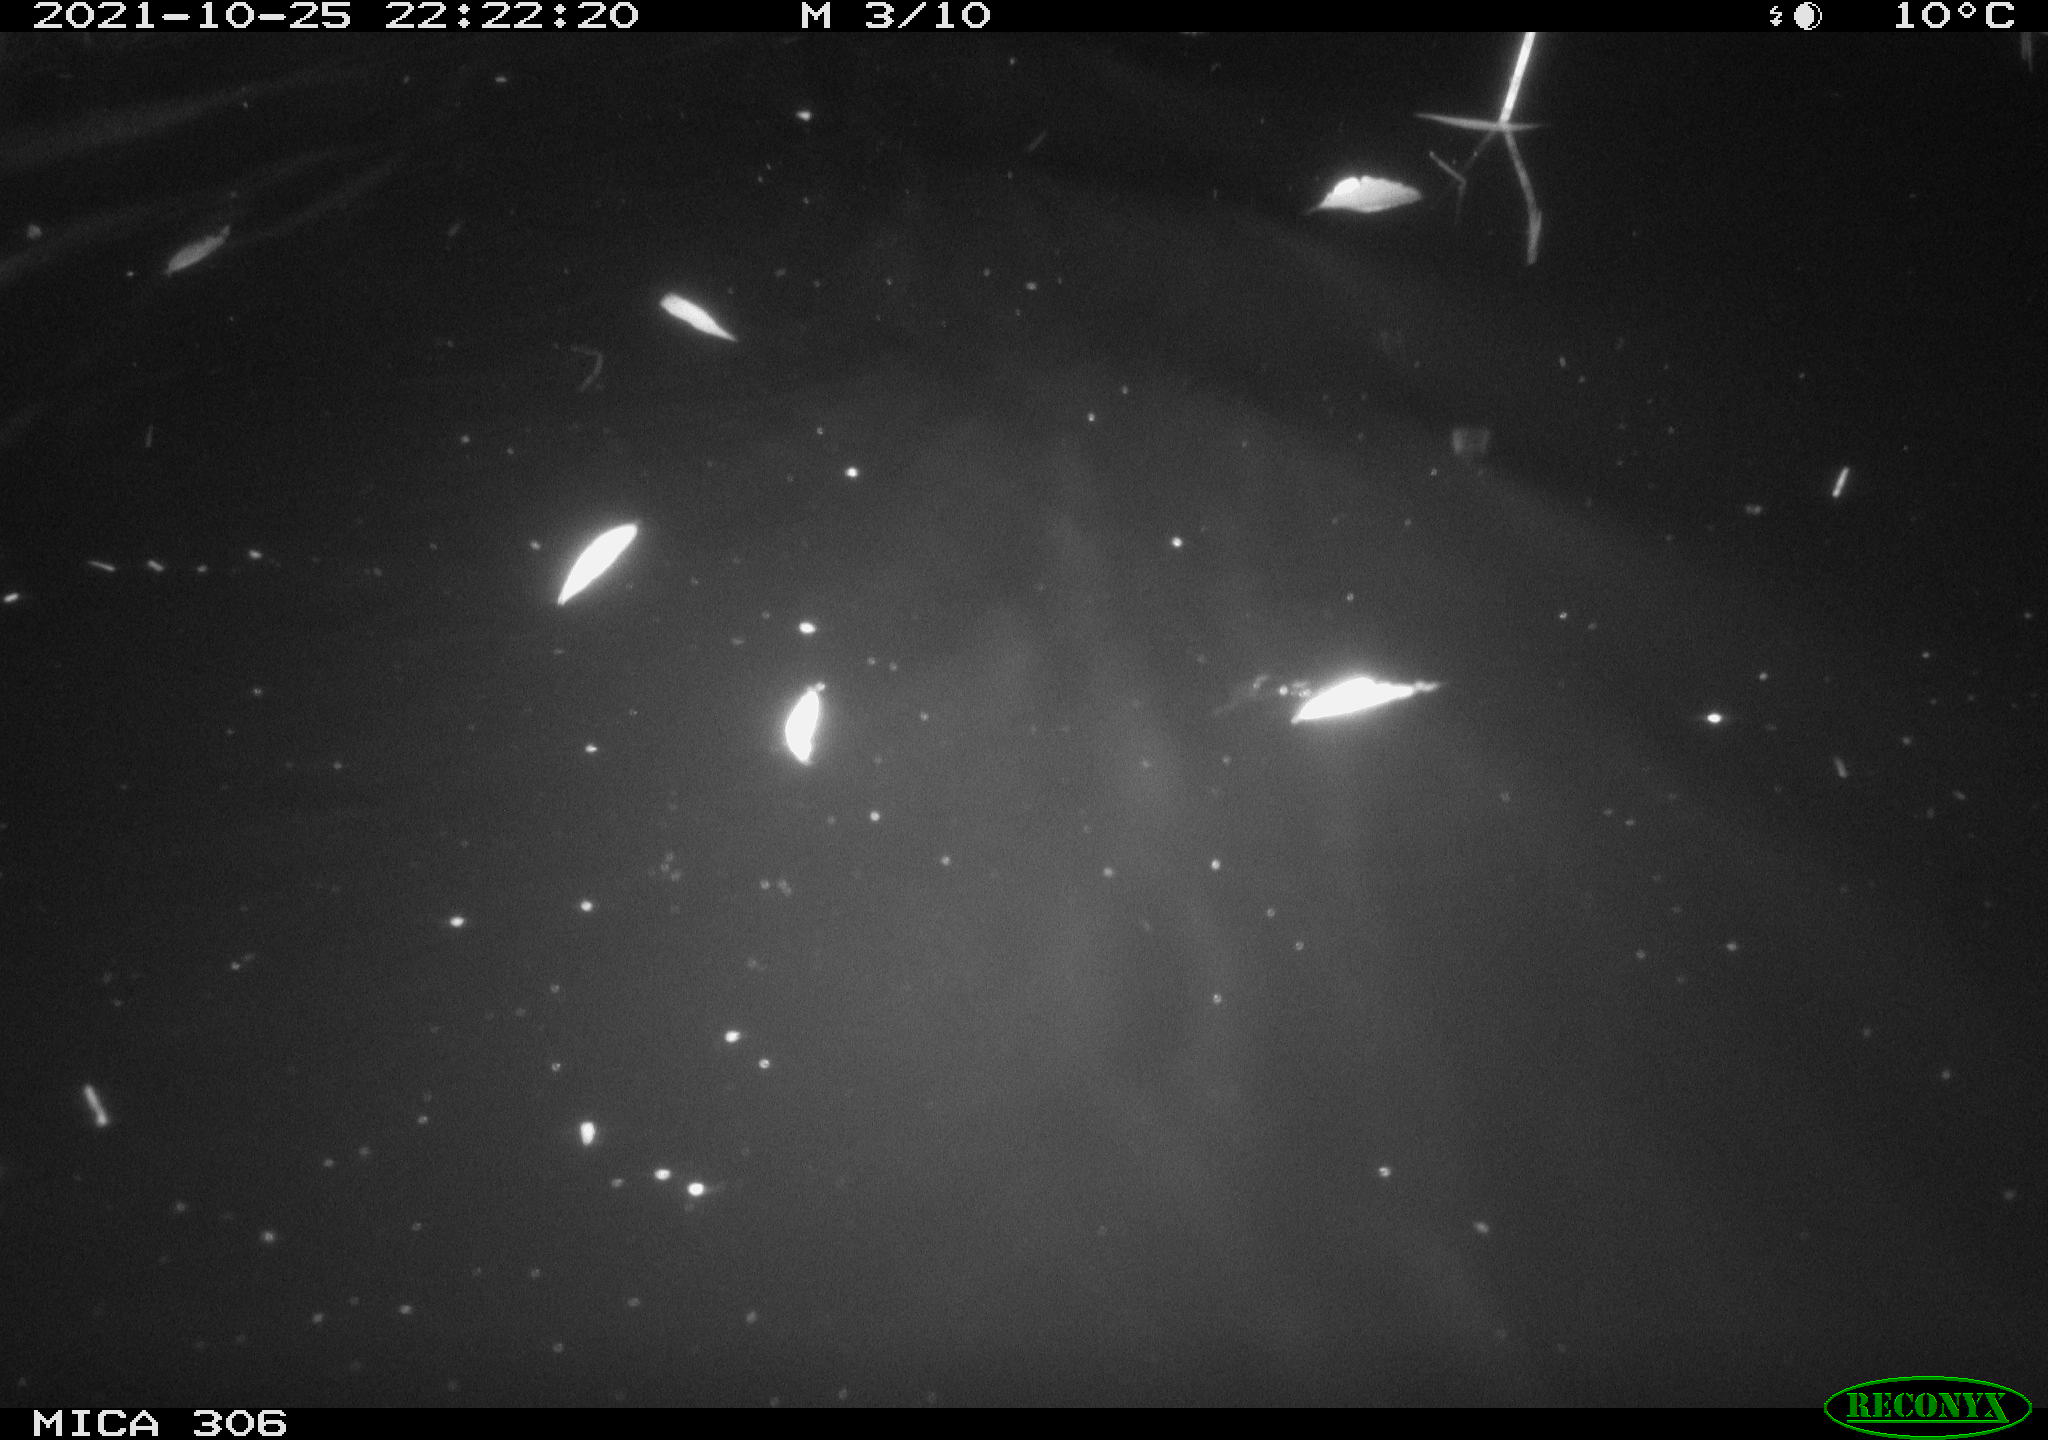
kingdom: Animalia
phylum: Chordata
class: Mammalia
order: Rodentia
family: Cricetidae
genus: Ondatra
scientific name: Ondatra zibethicus
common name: Muskrat
